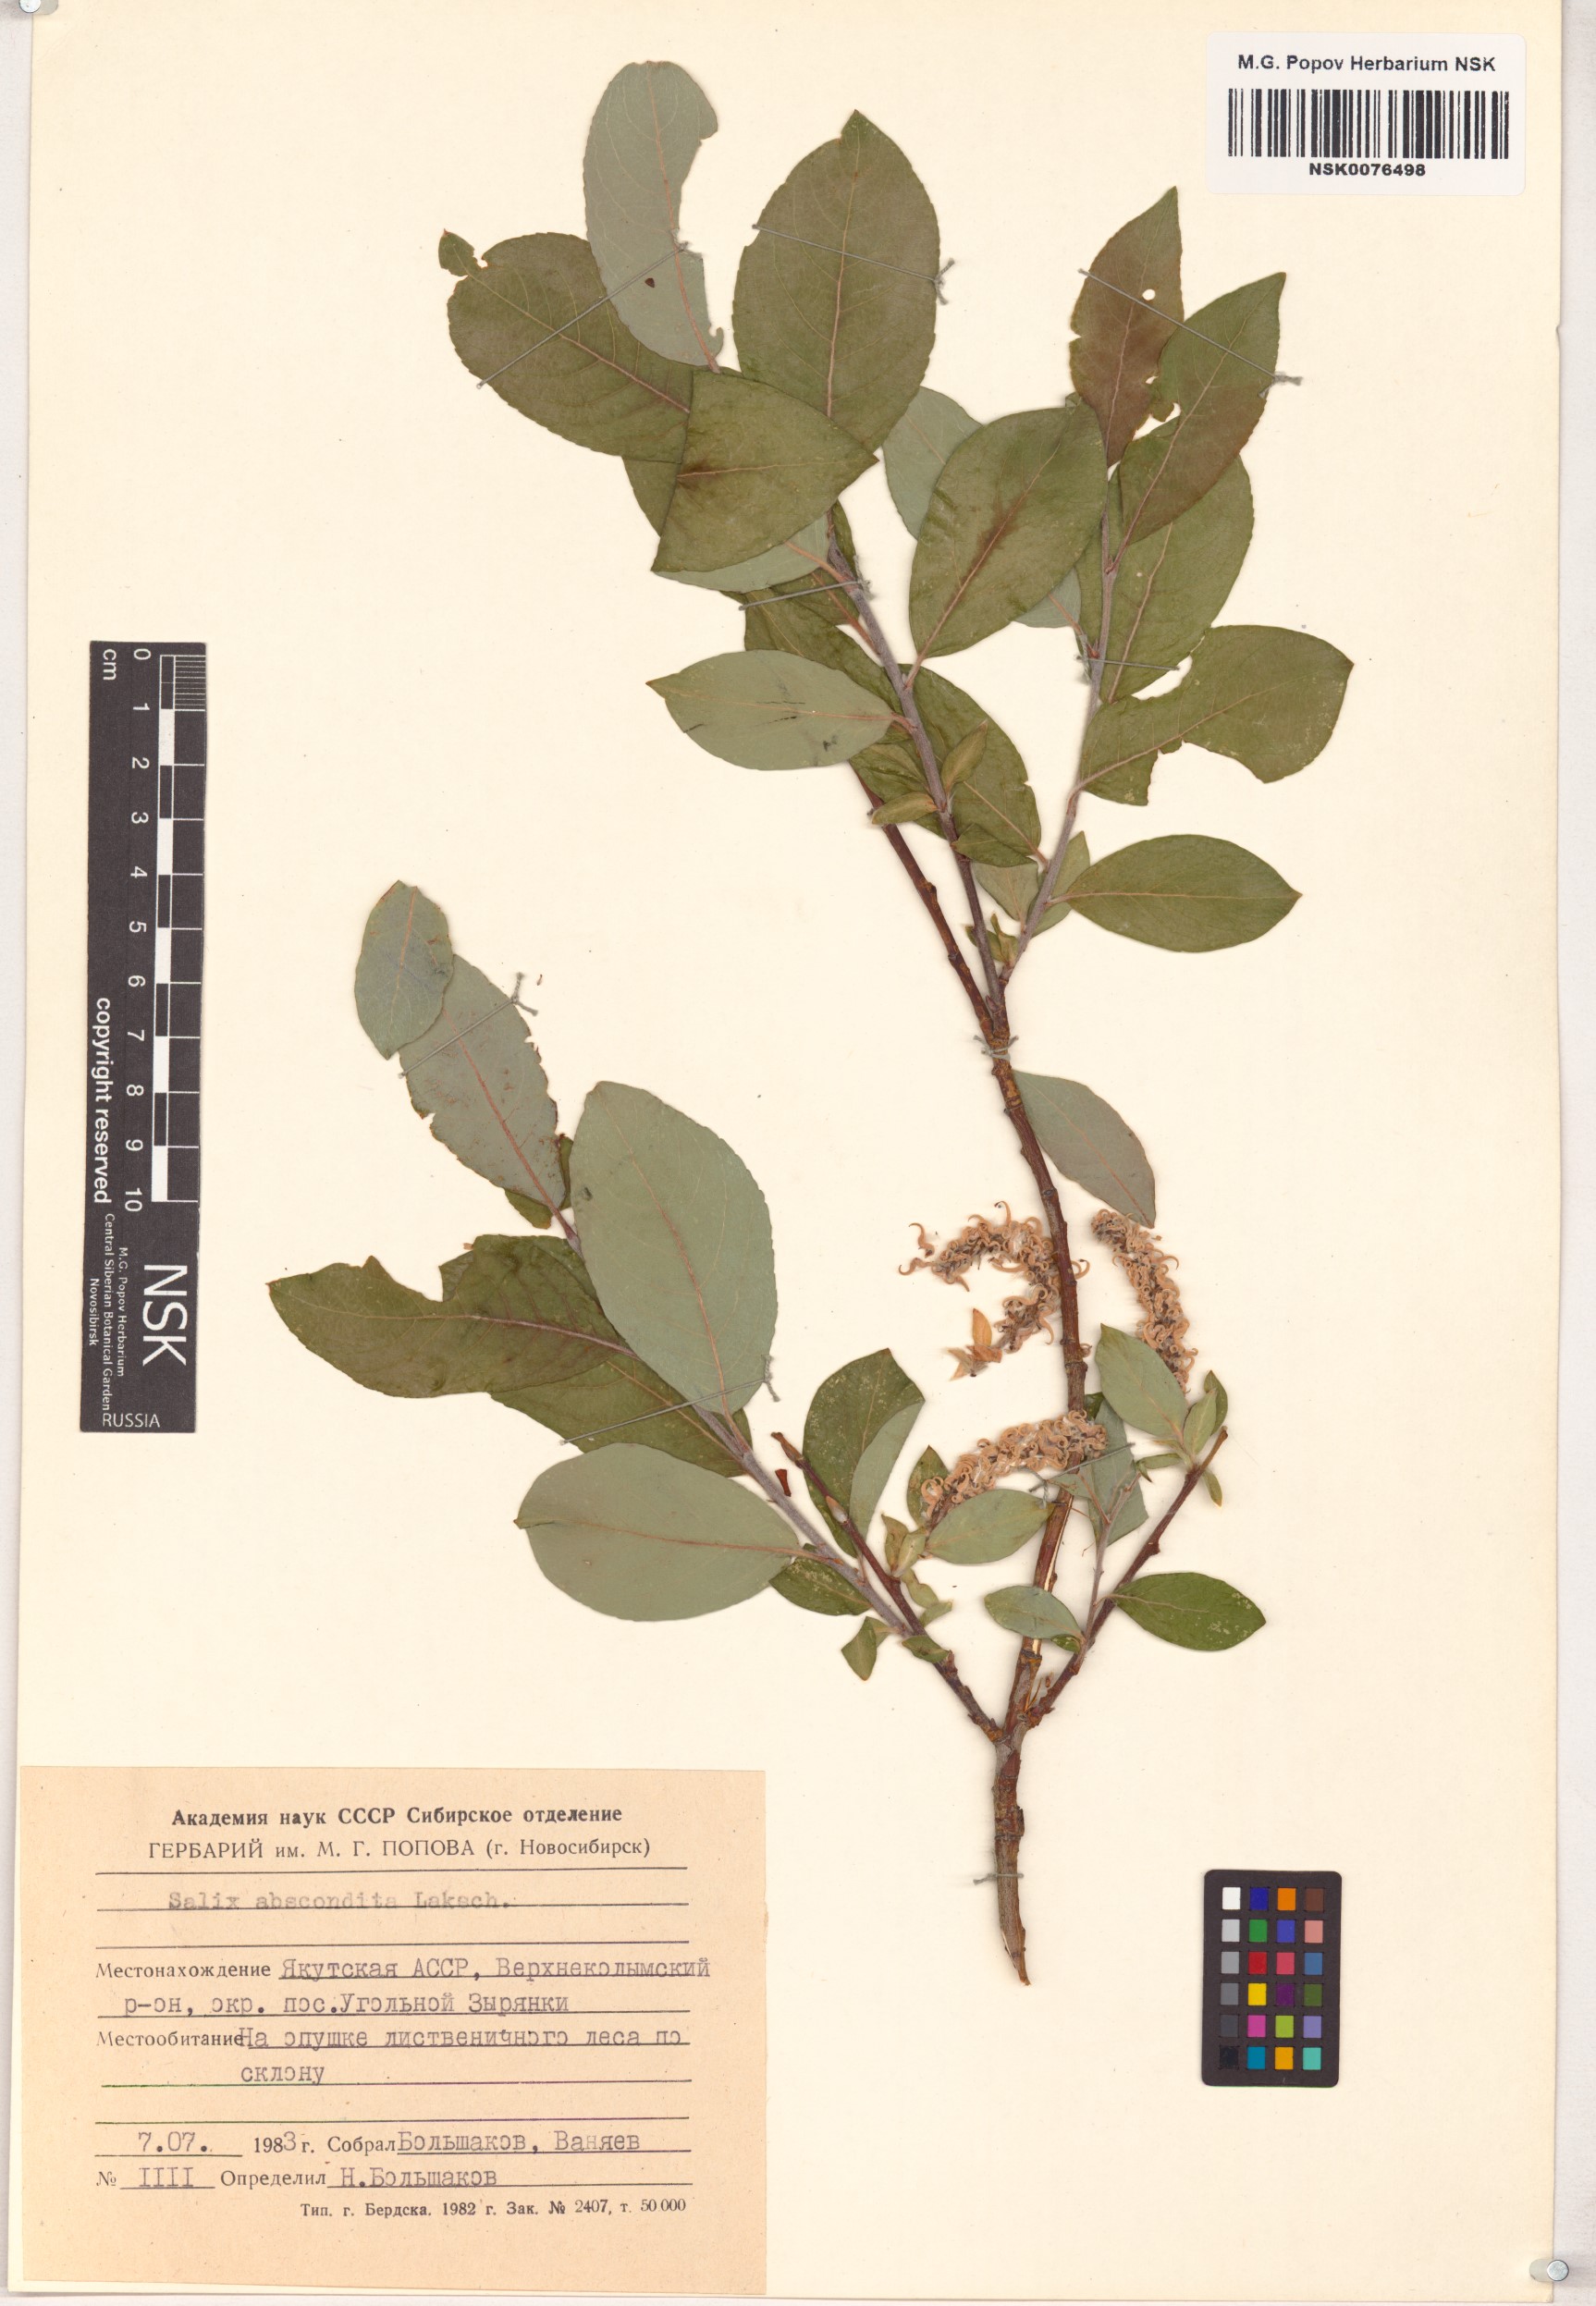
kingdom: Plantae
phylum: Tracheophyta
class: Magnoliopsida
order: Malpighiales
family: Salicaceae
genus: Salix
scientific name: Salix abscondita
